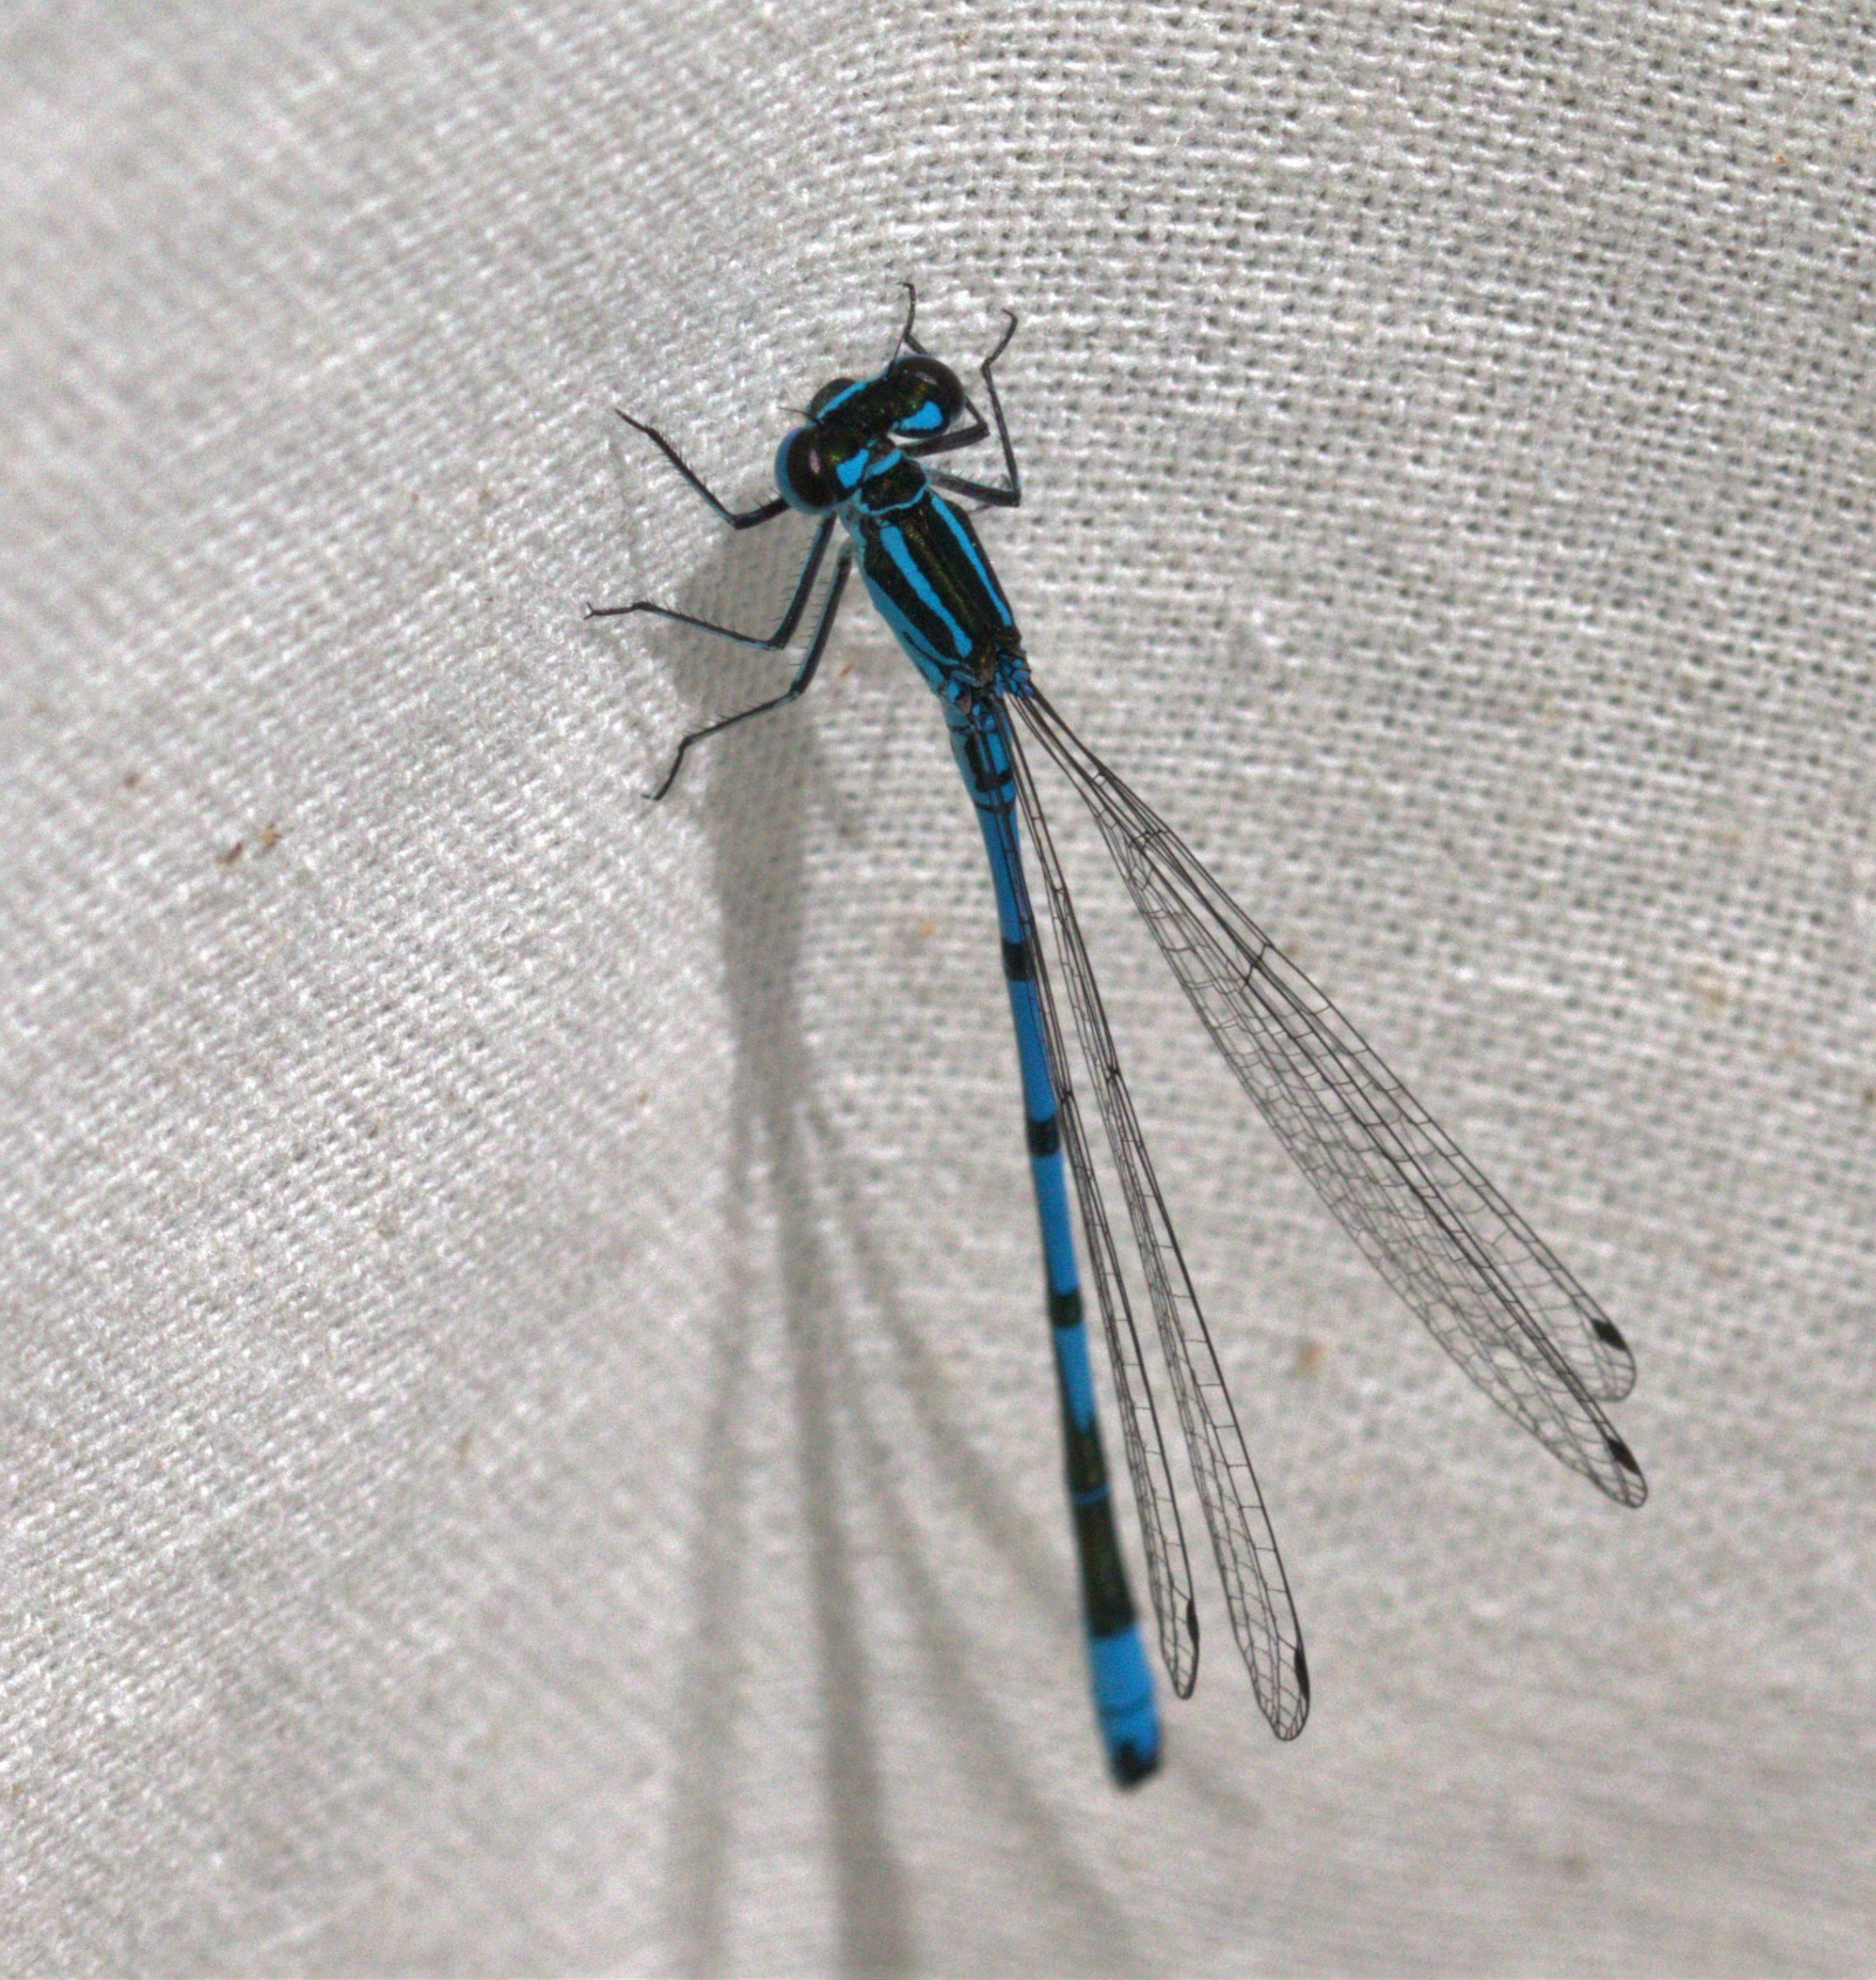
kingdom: Animalia
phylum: Arthropoda
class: Insecta
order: Odonata
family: Coenagrionidae
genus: Coenagrion
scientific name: Coenagrion puella
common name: Hestesko-vandnymfe
